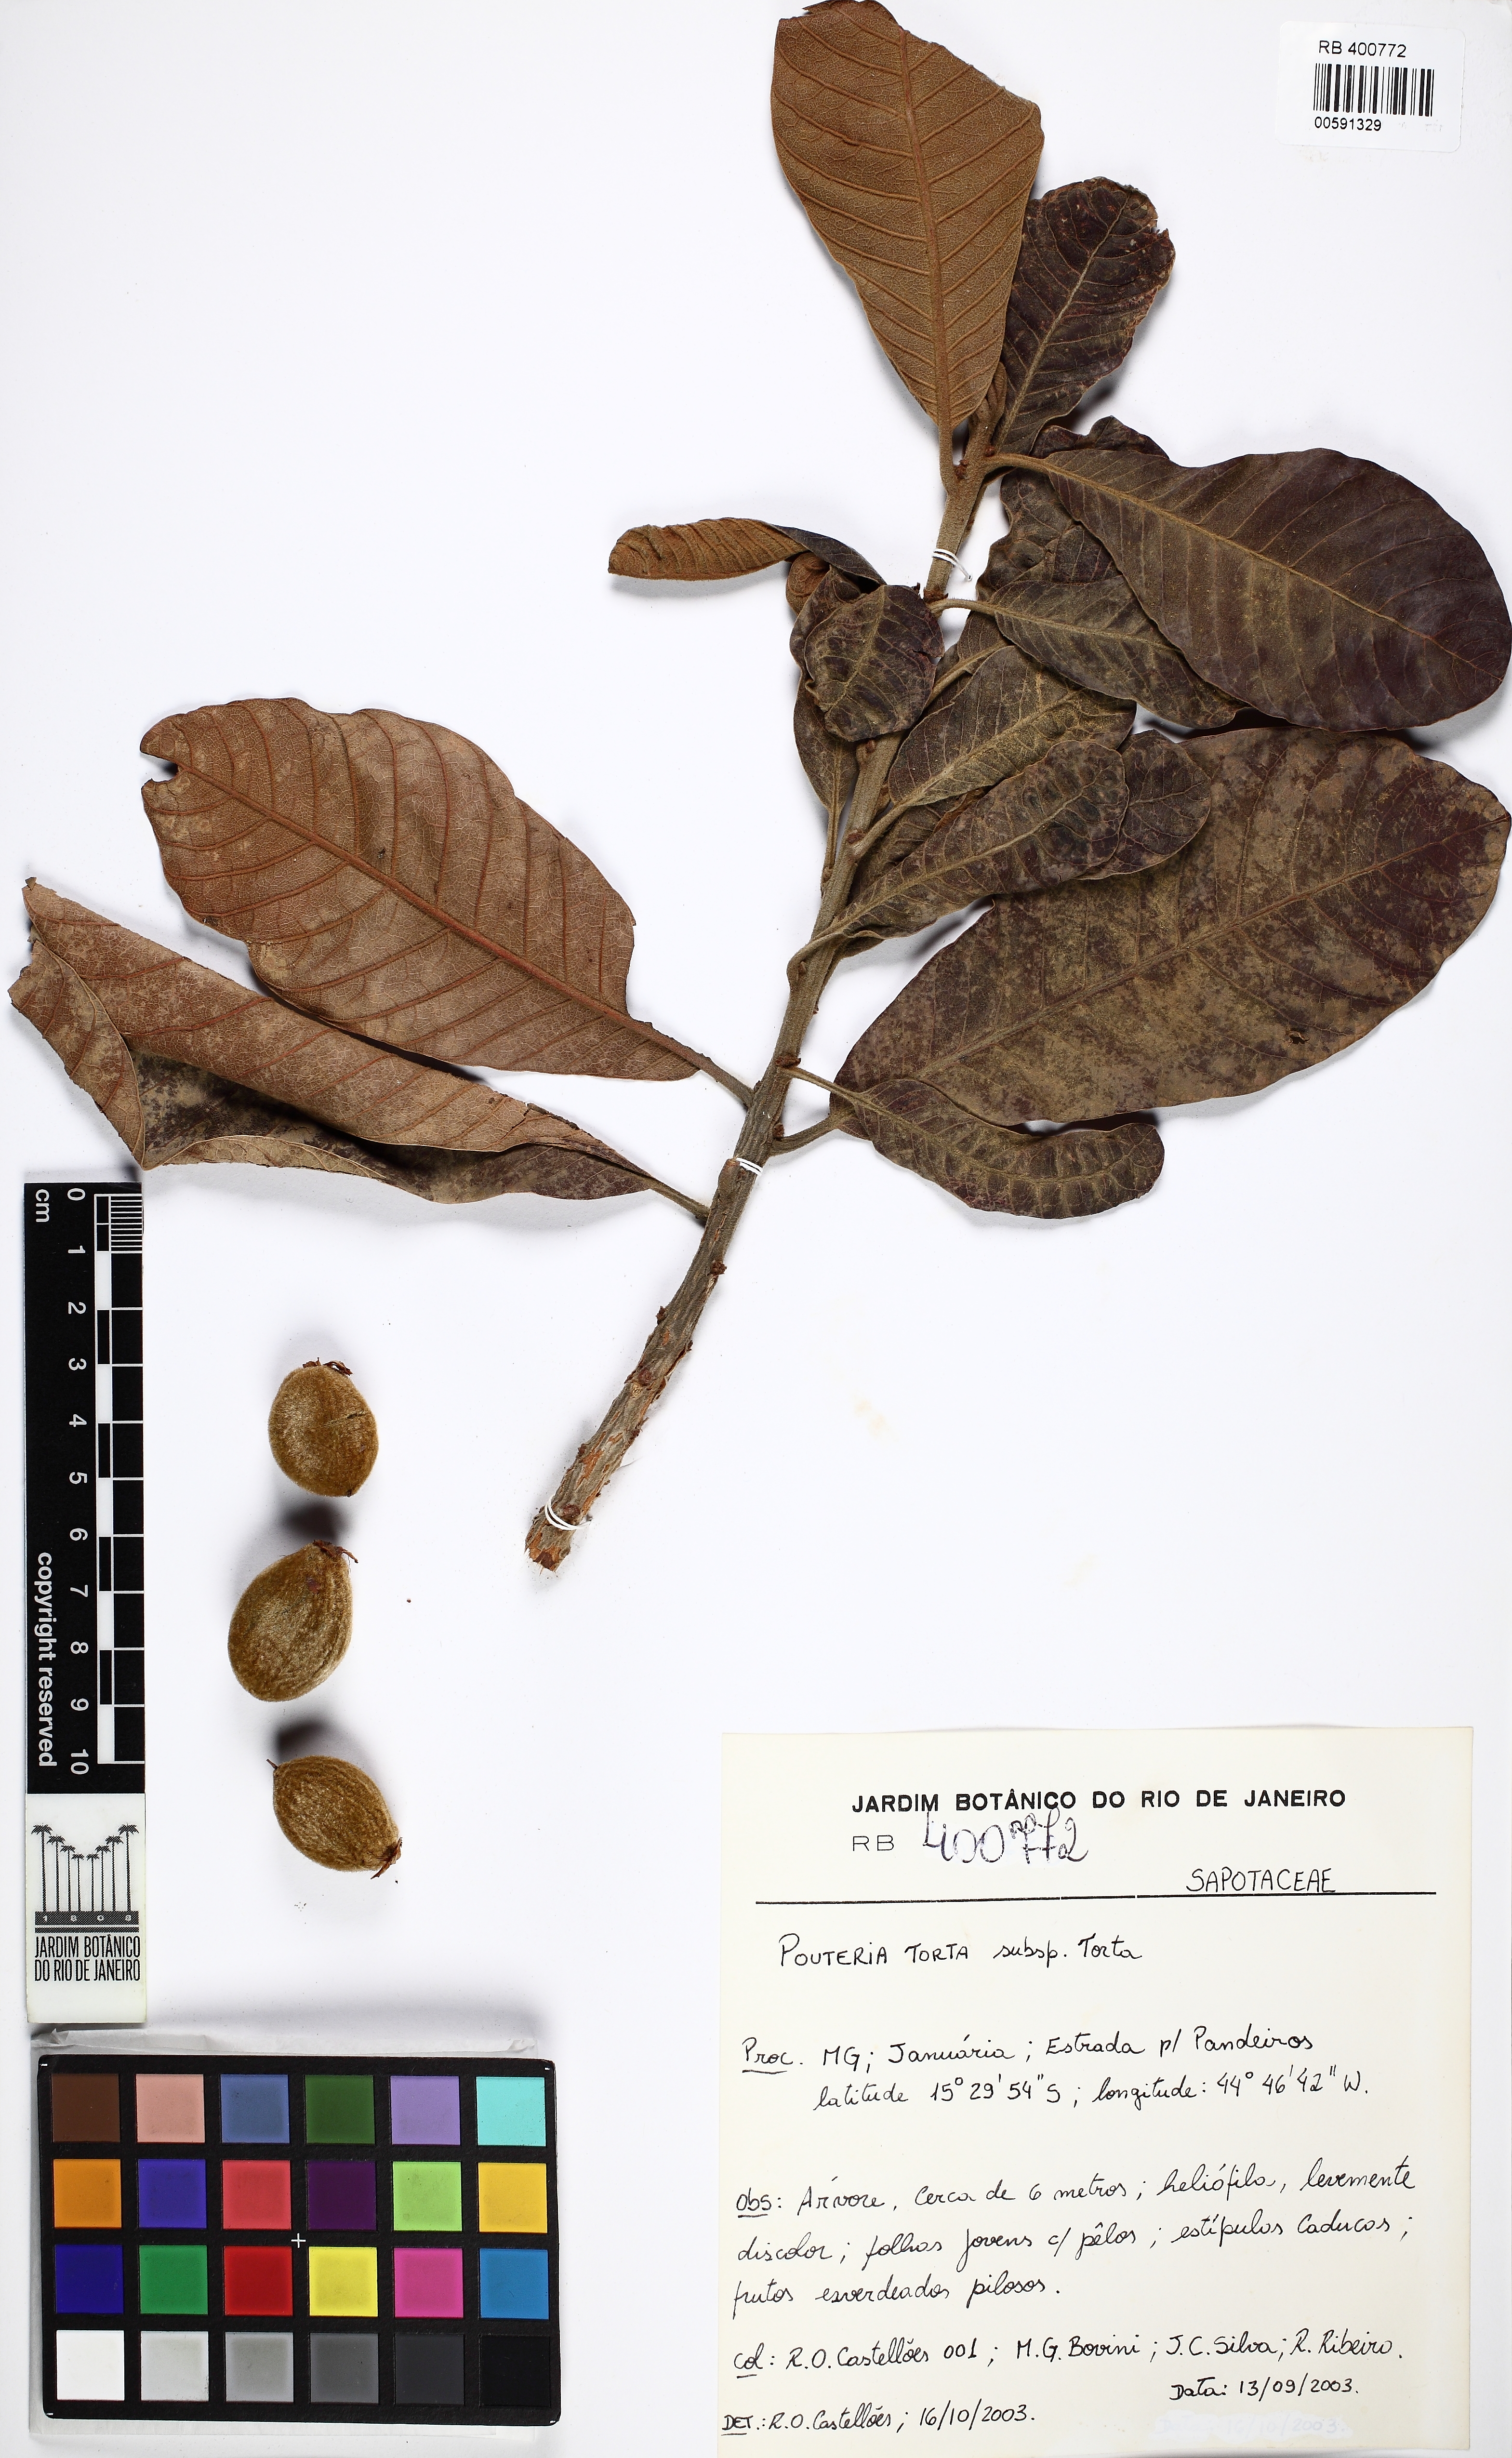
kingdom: Plantae
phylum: Tracheophyta
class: Magnoliopsida
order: Ericales
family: Sapotaceae
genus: Pouteria
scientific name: Pouteria torta
